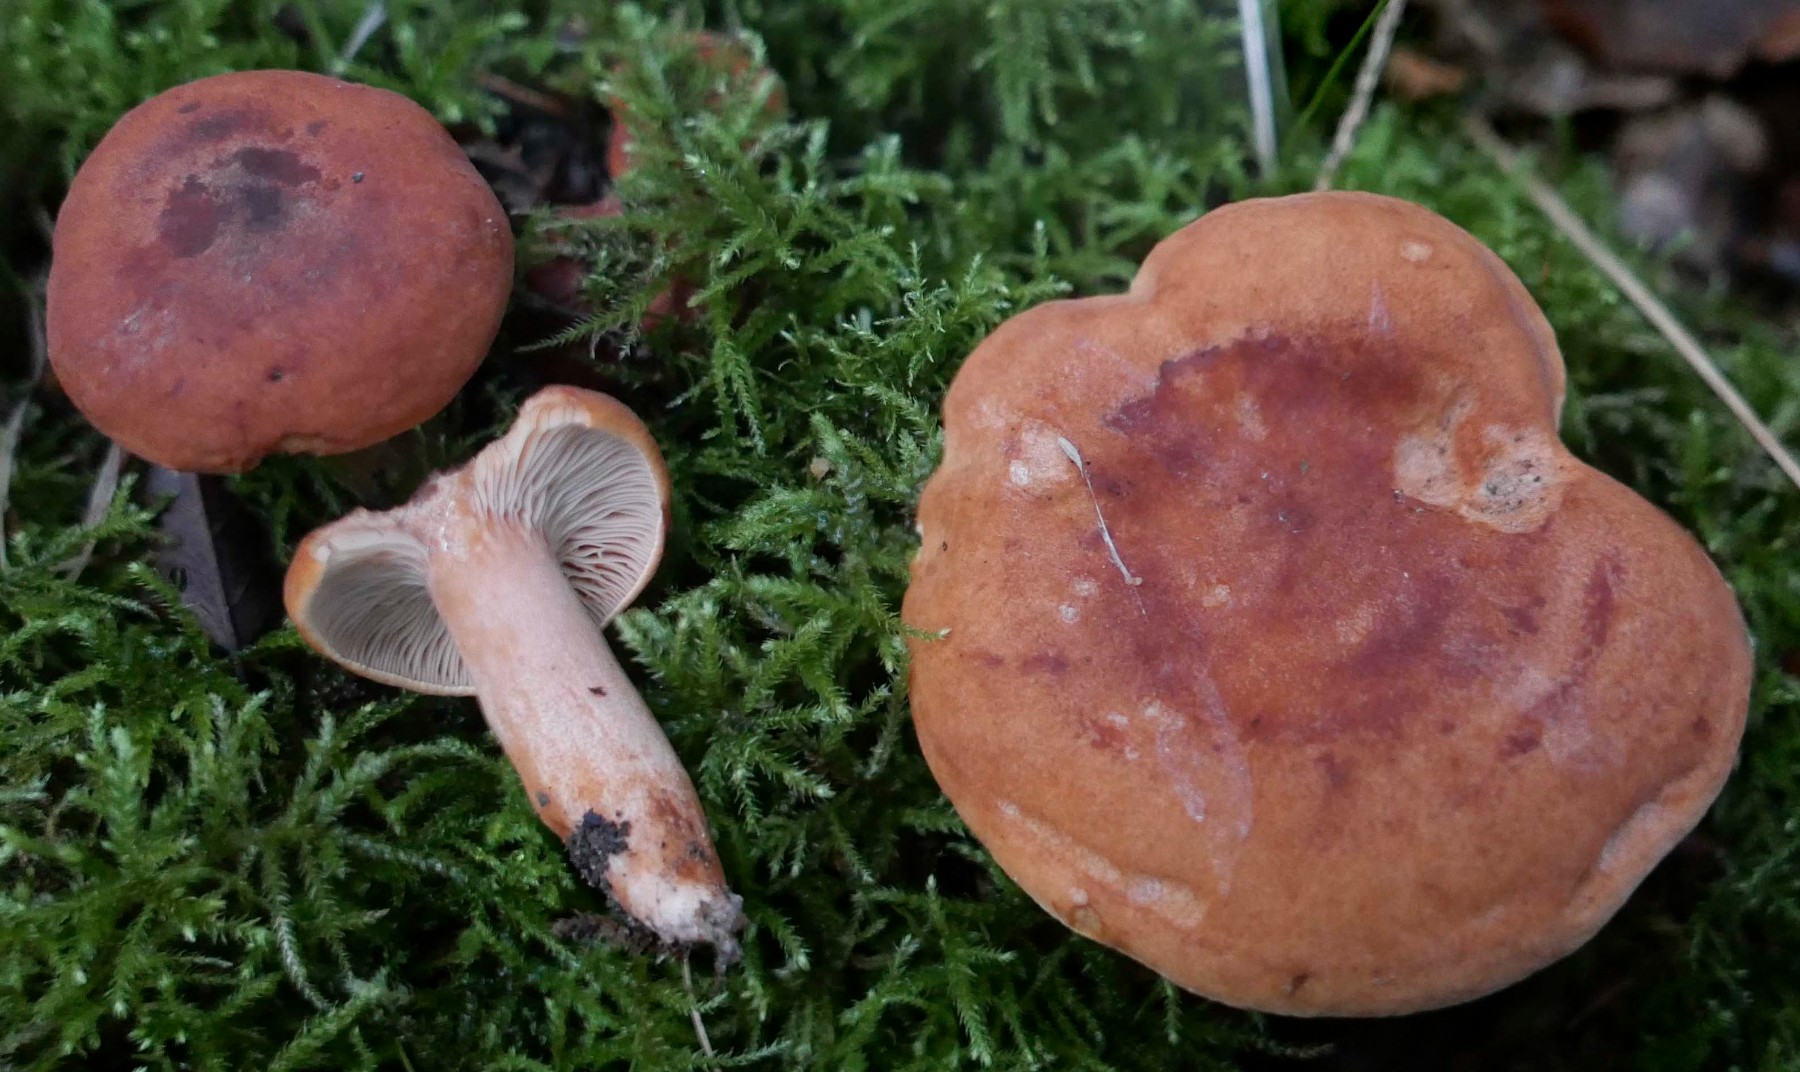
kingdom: Fungi
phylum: Basidiomycota
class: Agaricomycetes
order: Russulales
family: Russulaceae
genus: Lactarius
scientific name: Lactarius fulvissimus
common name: ræve-mælkehat
